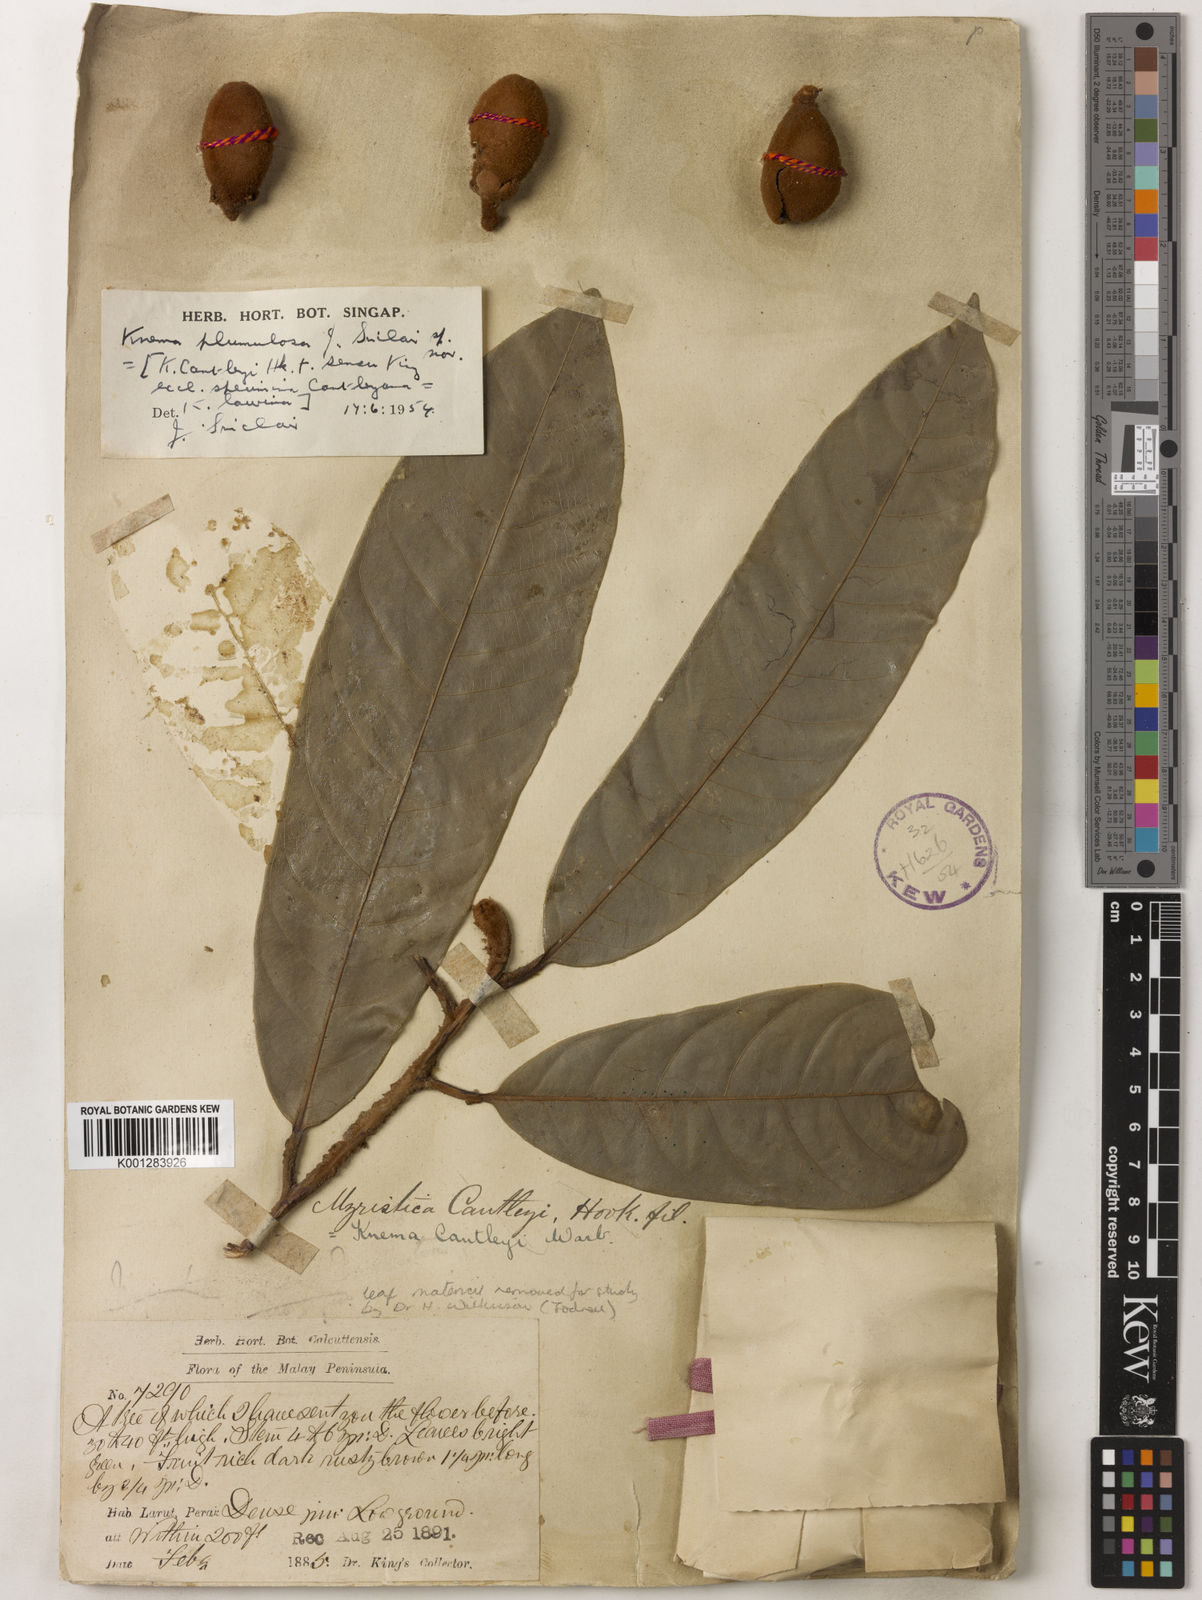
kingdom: Plantae
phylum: Tracheophyta
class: Magnoliopsida
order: Magnoliales
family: Myristicaceae
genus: Knema
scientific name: Knema plumulosa
